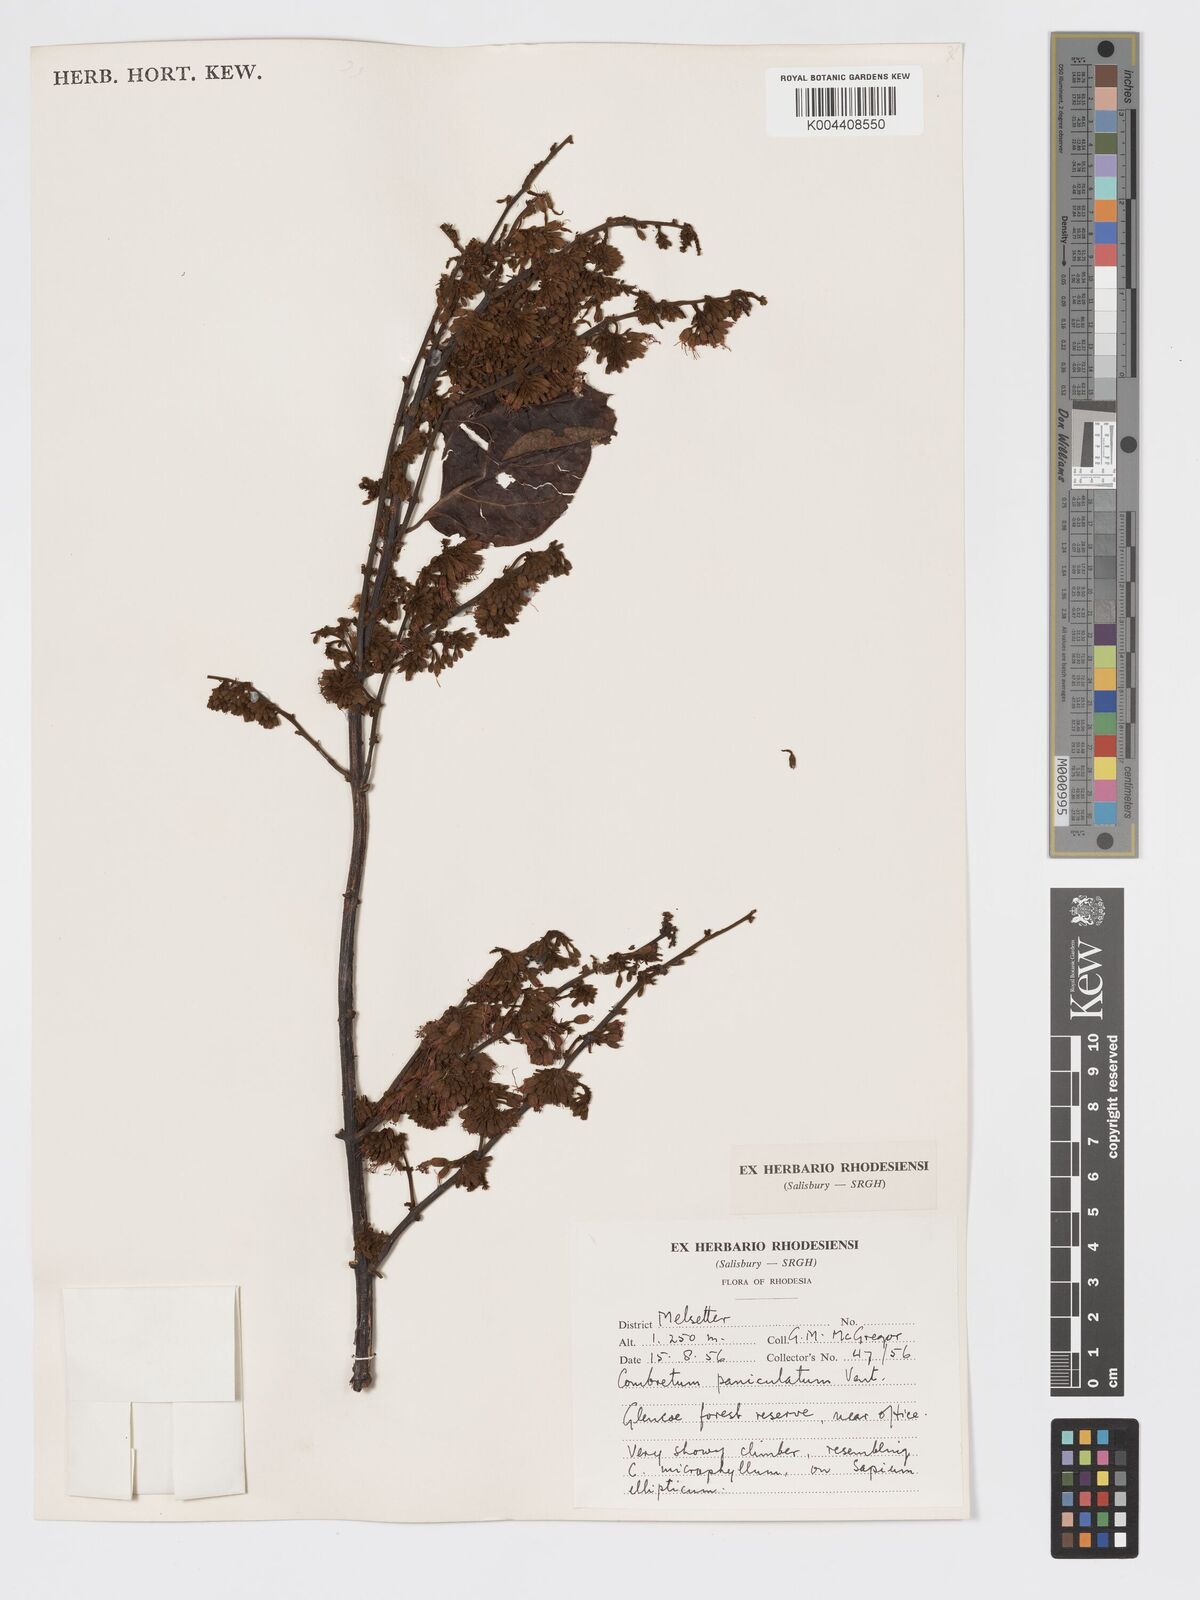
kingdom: Plantae
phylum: Tracheophyta
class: Magnoliopsida
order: Myrtales
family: Combretaceae
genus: Combretum
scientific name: Combretum paniculatum
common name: Fire vine
